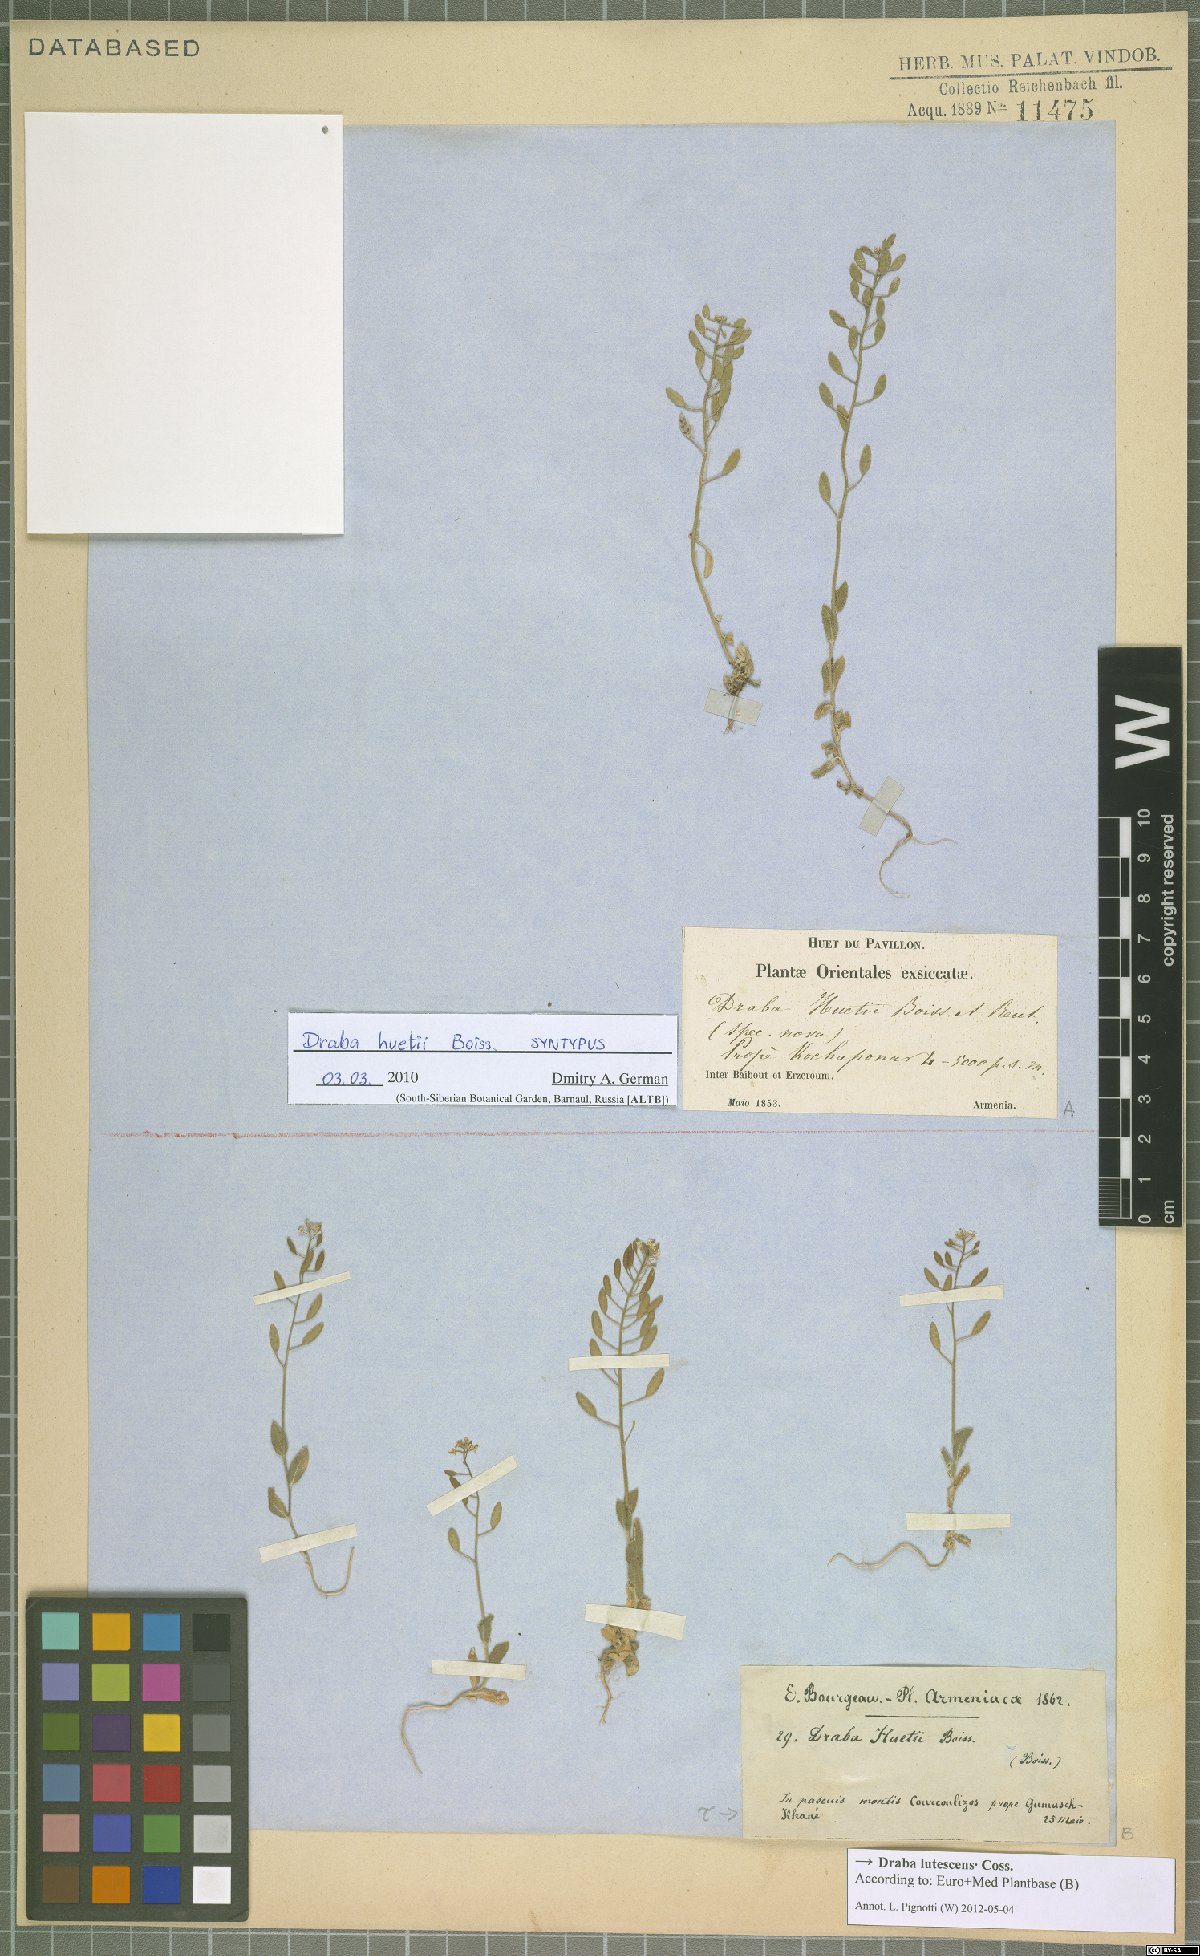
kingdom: Plantae
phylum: Tracheophyta
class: Magnoliopsida
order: Brassicales
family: Brassicaceae
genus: Draba
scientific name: Draba huetii
